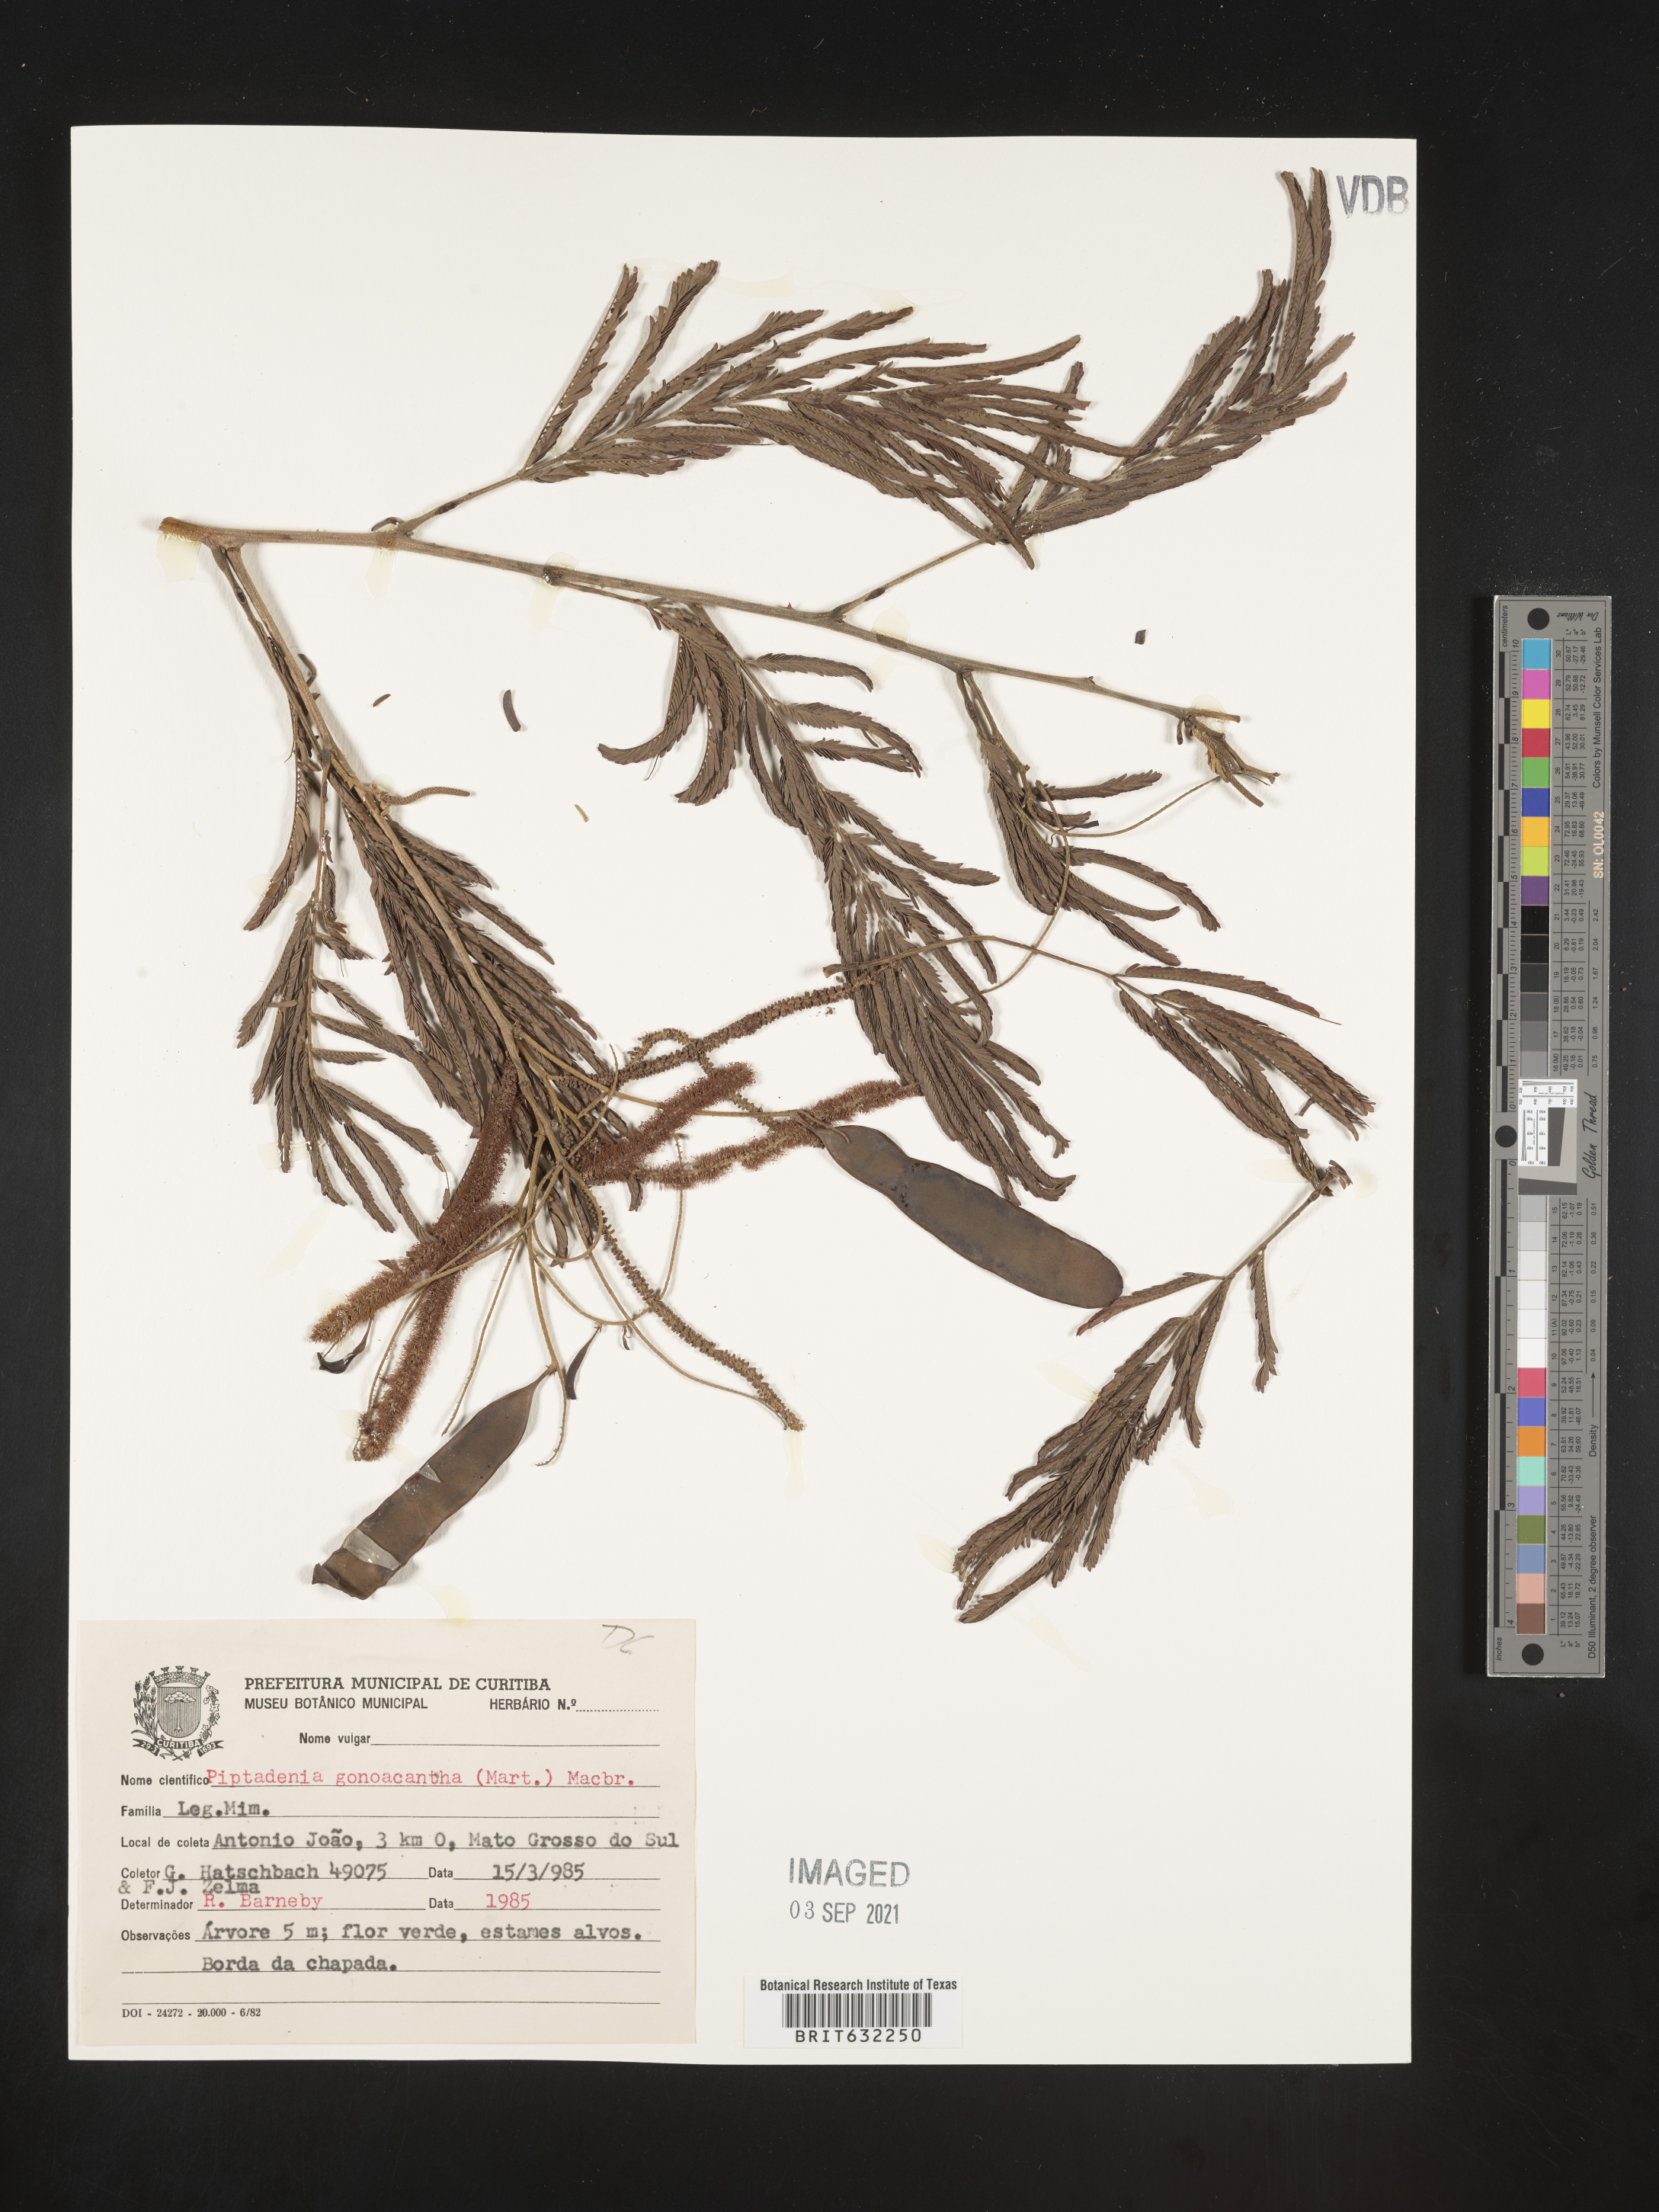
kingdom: Plantae
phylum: Tracheophyta
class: Magnoliopsida
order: Fabales
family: Fabaceae
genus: Piptadenia
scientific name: Piptadenia
